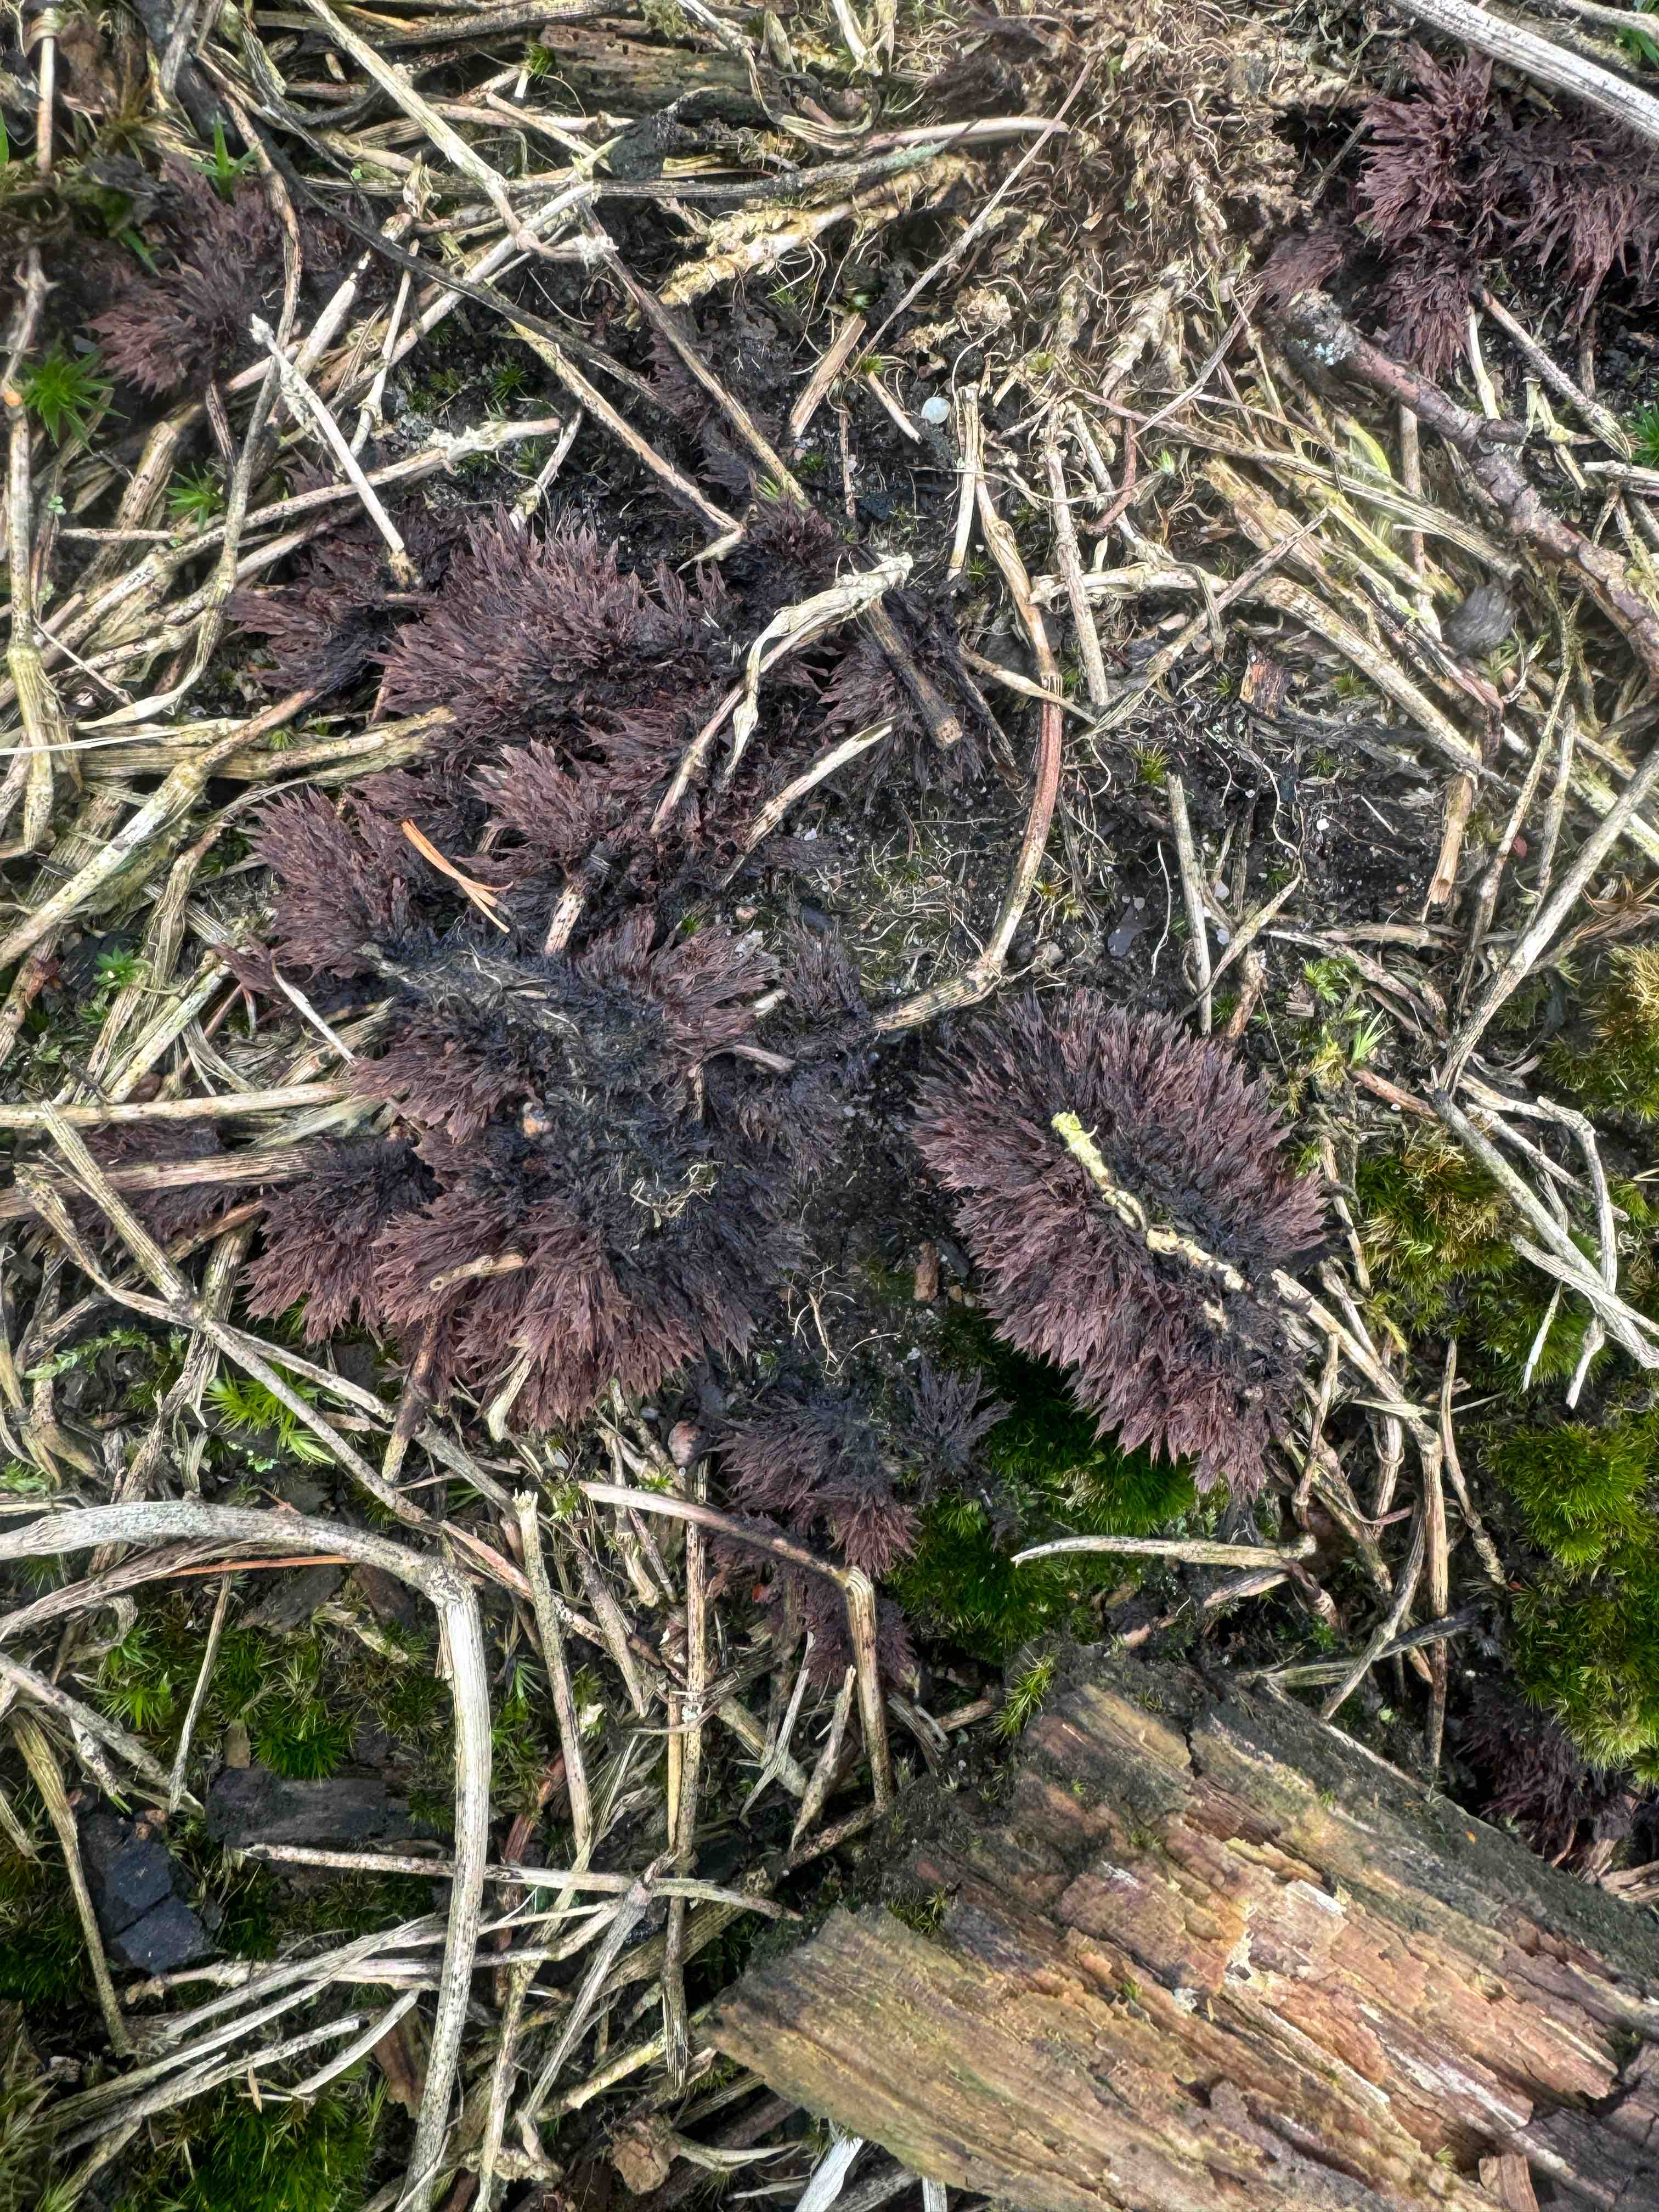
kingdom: Fungi
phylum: Basidiomycota
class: Agaricomycetes
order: Thelephorales
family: Thelephoraceae
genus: Thelephora
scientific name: Thelephora terrestris
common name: fliget frynsesvamp
